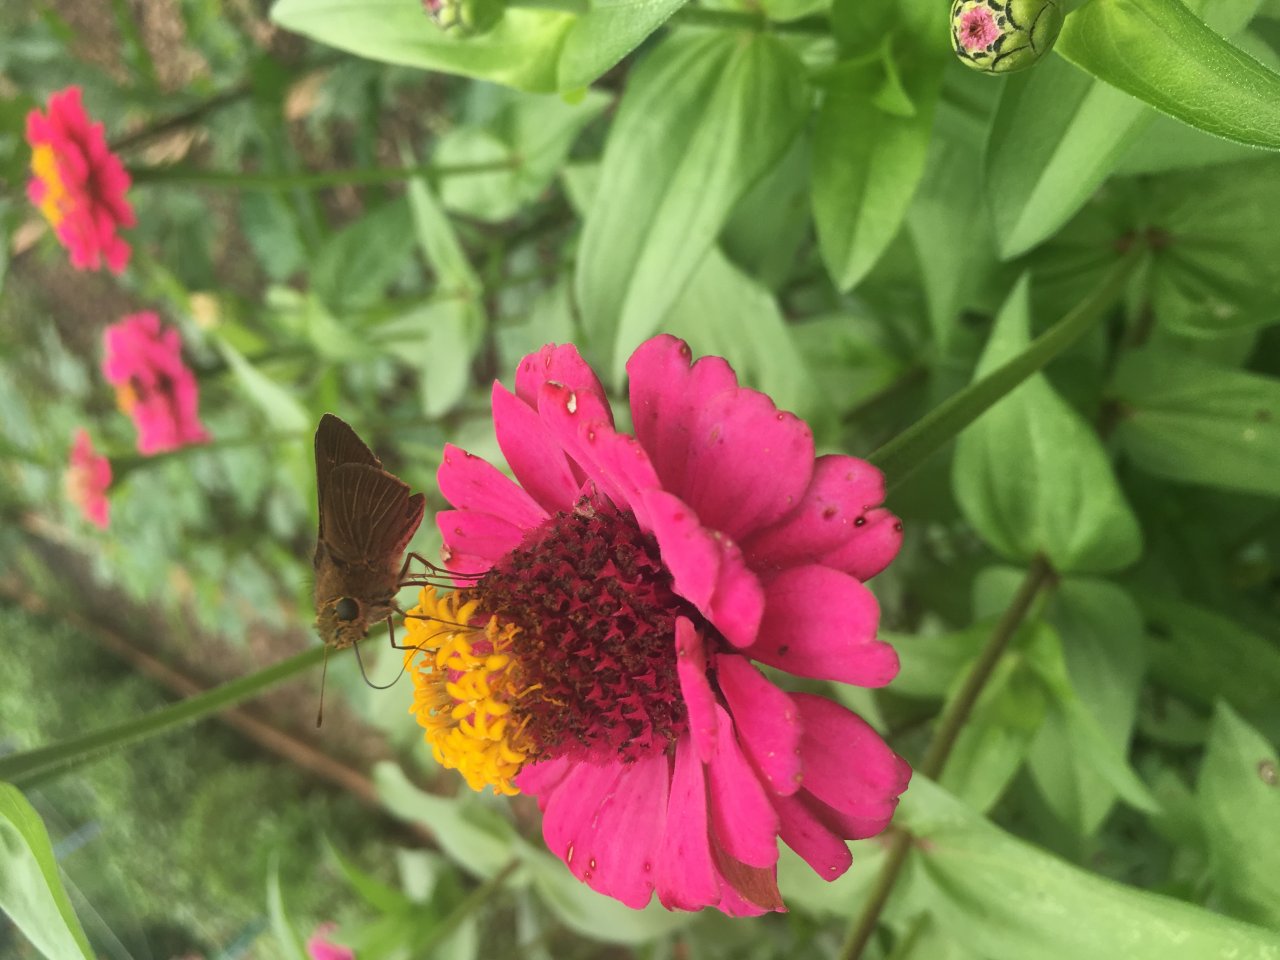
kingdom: Animalia
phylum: Arthropoda
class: Insecta
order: Lepidoptera
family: Hesperiidae
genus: Panoquina
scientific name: Panoquina ocola
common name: Ocola Skipper
